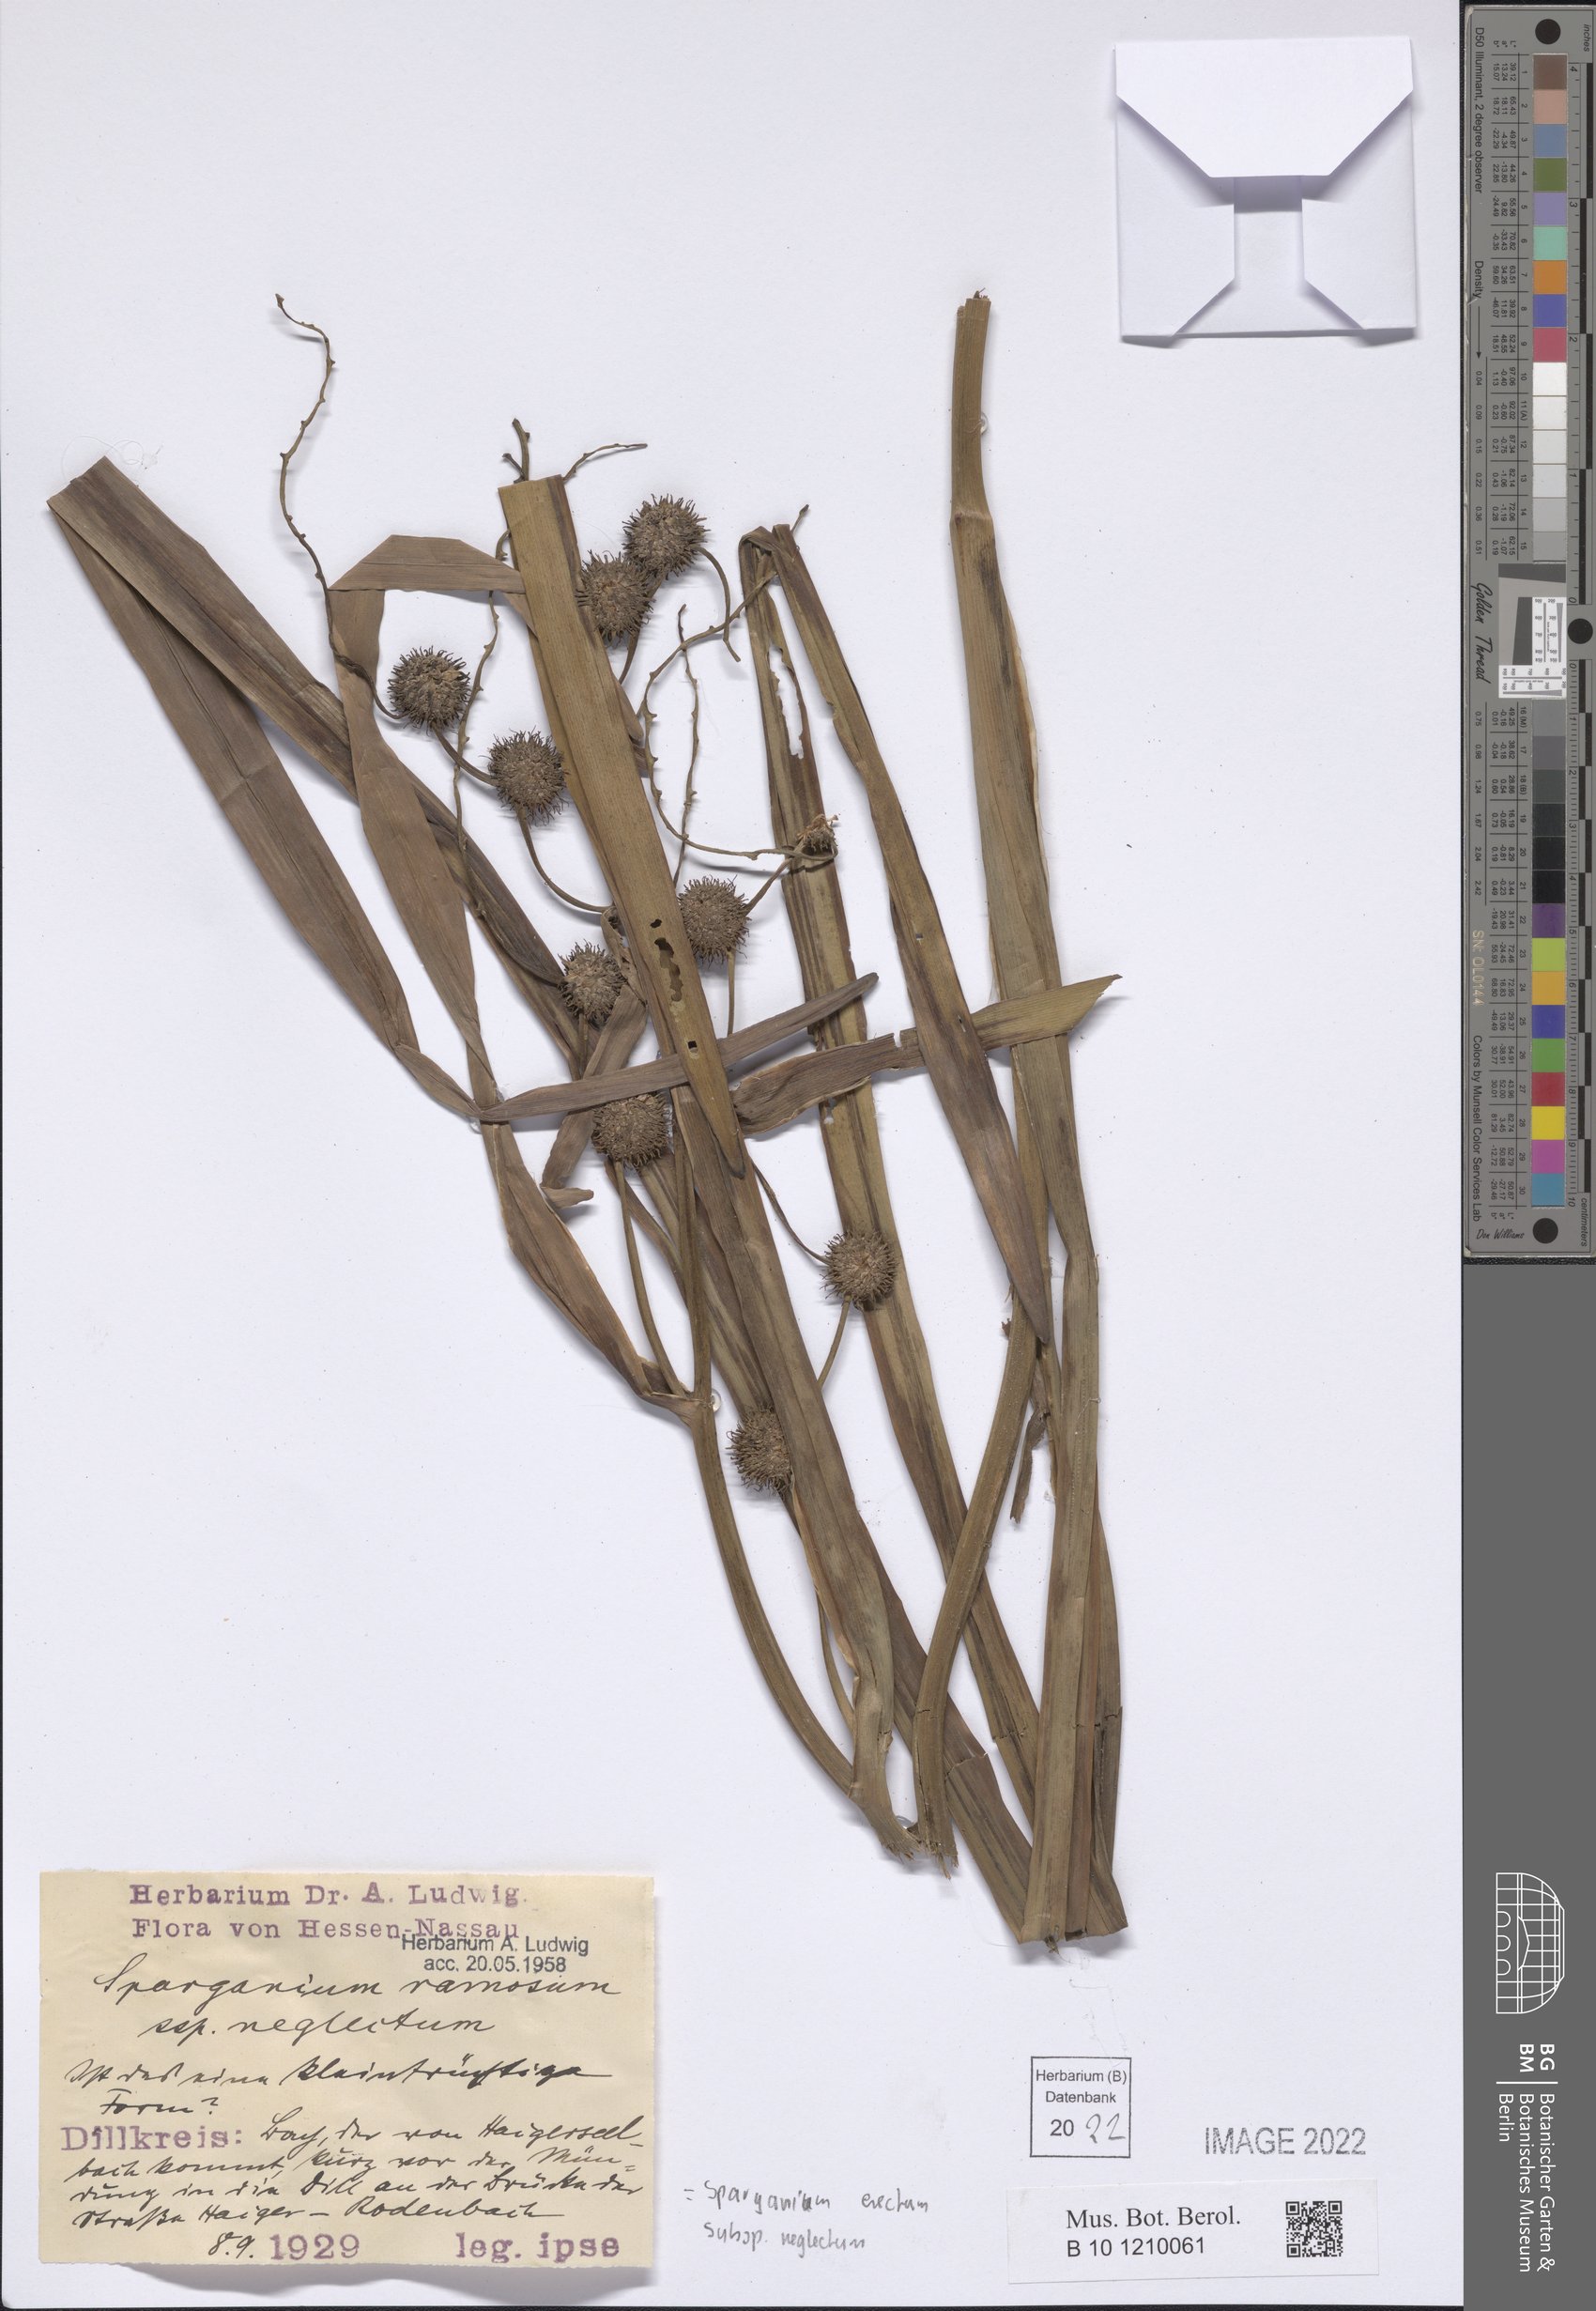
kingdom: Plantae
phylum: Tracheophyta
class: Liliopsida
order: Poales
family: Typhaceae
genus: Sparganium
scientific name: Sparganium erectum
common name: Branched bur-reed
